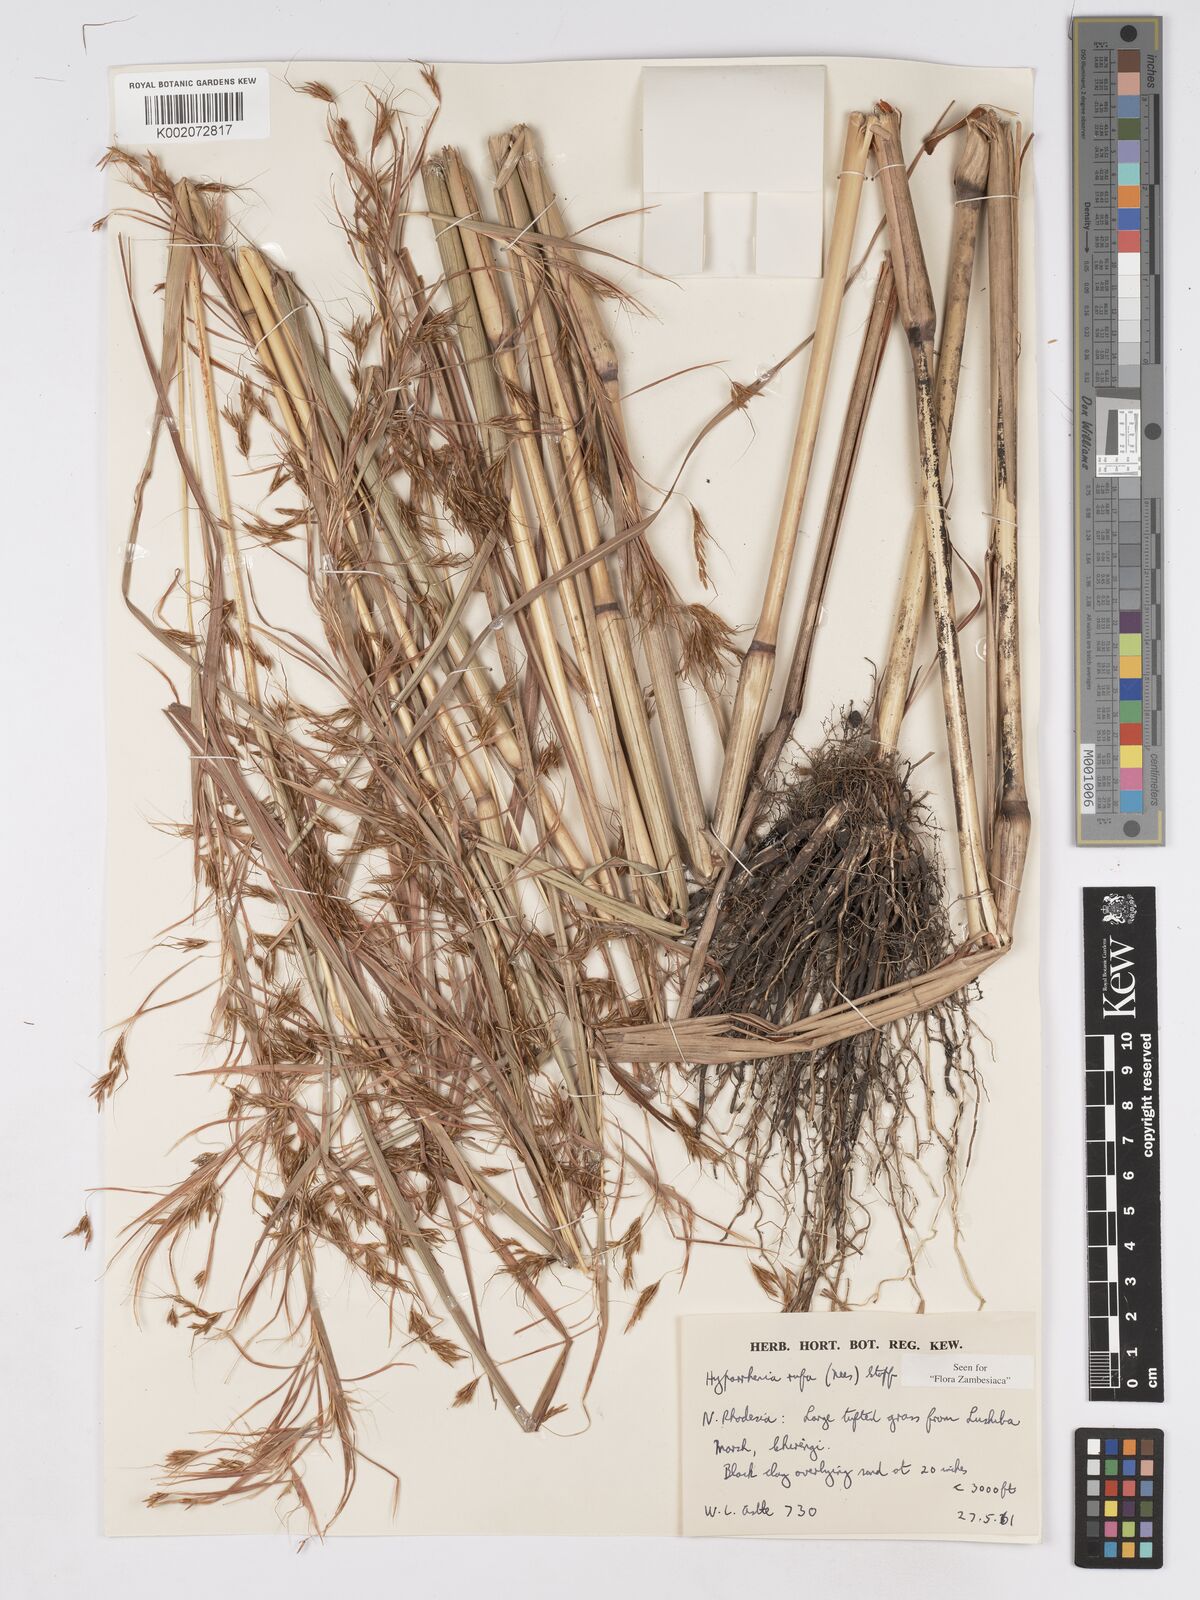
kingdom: Plantae
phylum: Tracheophyta
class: Liliopsida
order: Poales
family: Poaceae
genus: Hyparrhenia
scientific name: Hyparrhenia rufa
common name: Jaraguagrass
